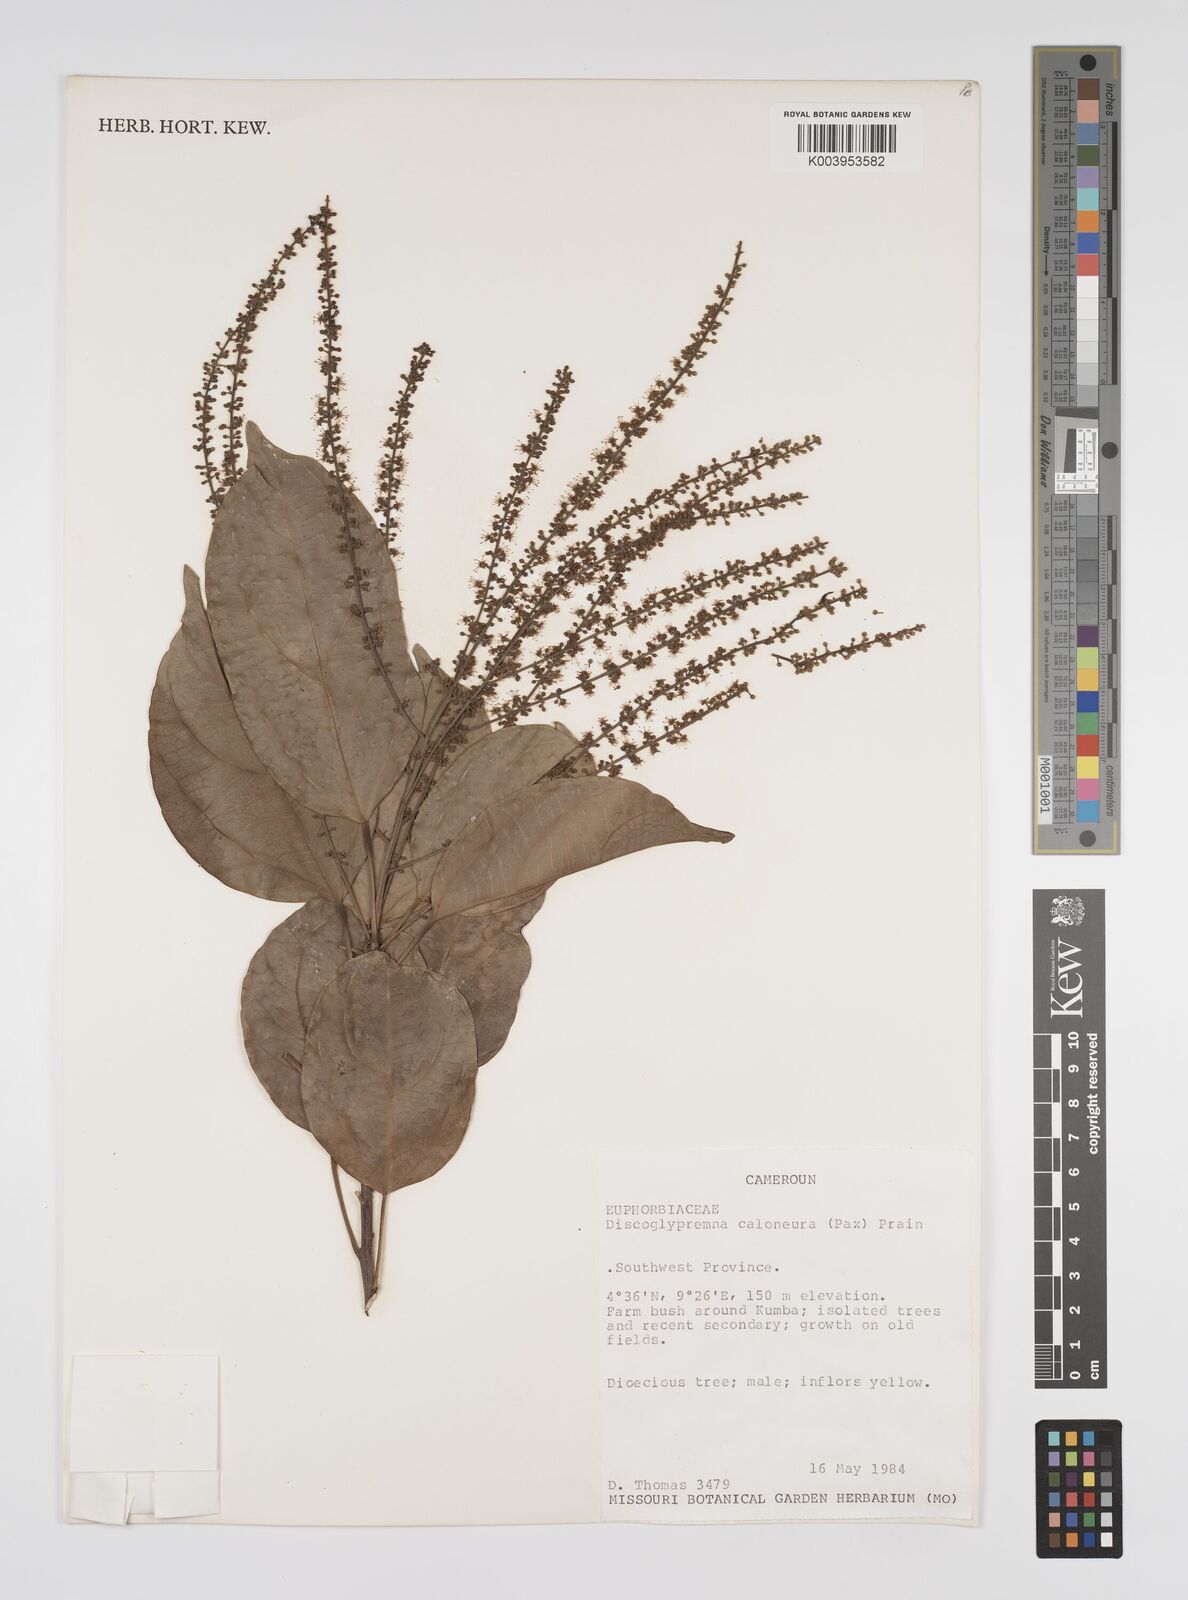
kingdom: Plantae
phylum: Tracheophyta
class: Magnoliopsida
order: Malpighiales
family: Euphorbiaceae
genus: Discoglypremna
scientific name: Discoglypremna caloneura
